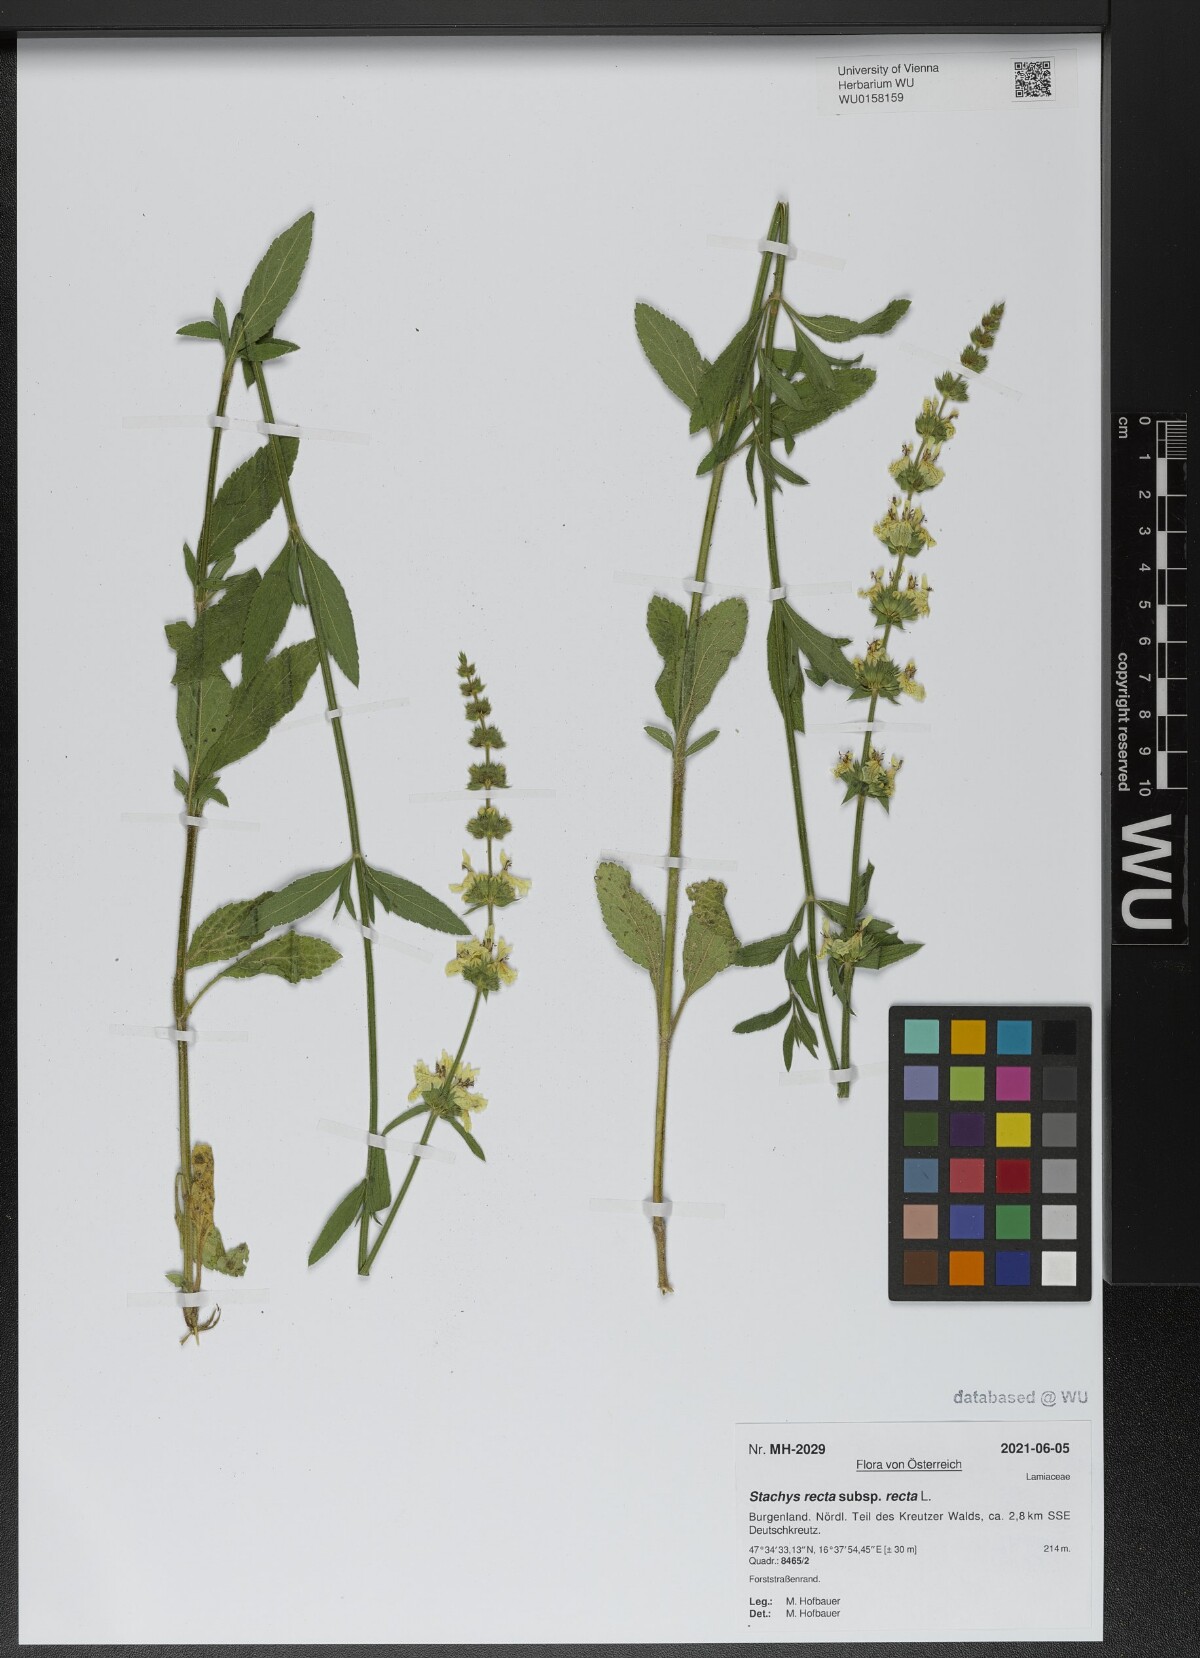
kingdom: Plantae
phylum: Tracheophyta
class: Magnoliopsida
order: Lamiales
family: Lamiaceae
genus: Stachys
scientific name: Stachys recta
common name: Perennial yellow-woundwort
